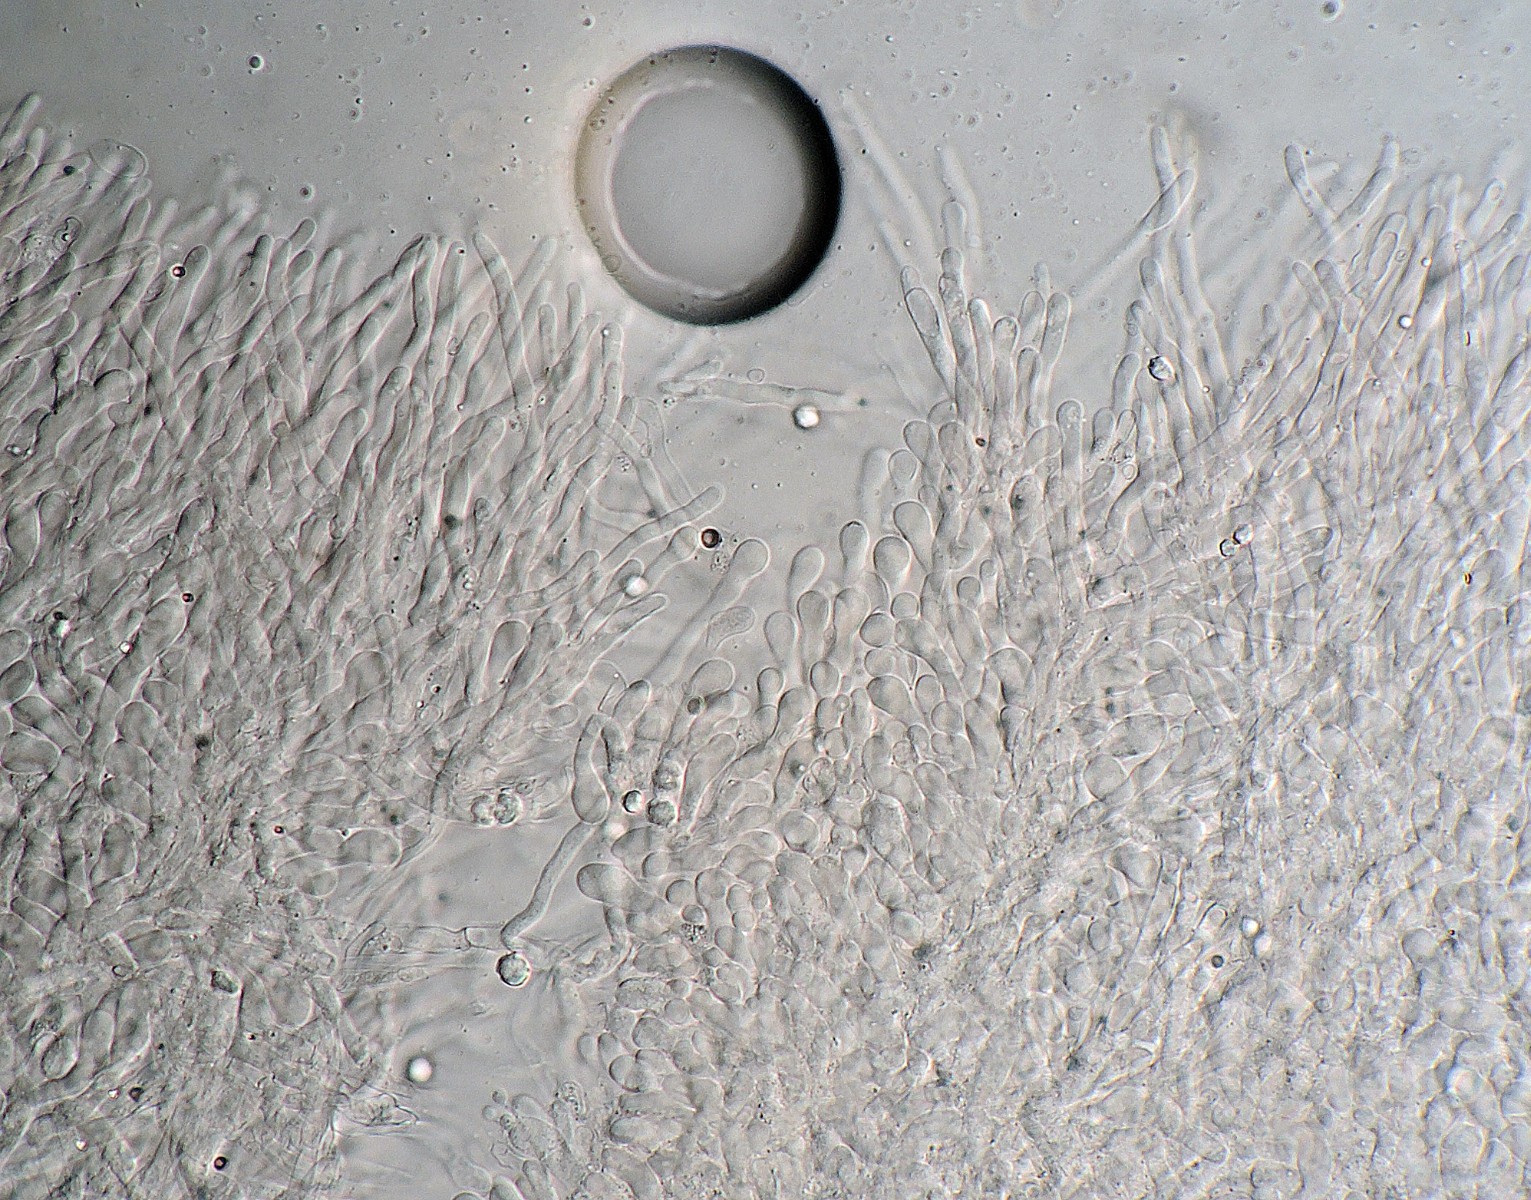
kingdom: Fungi
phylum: Basidiomycota
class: Agaricomycetes
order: Polyporales
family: Cerrenaceae
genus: Raduliporus
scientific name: Raduliporus aneirinus
